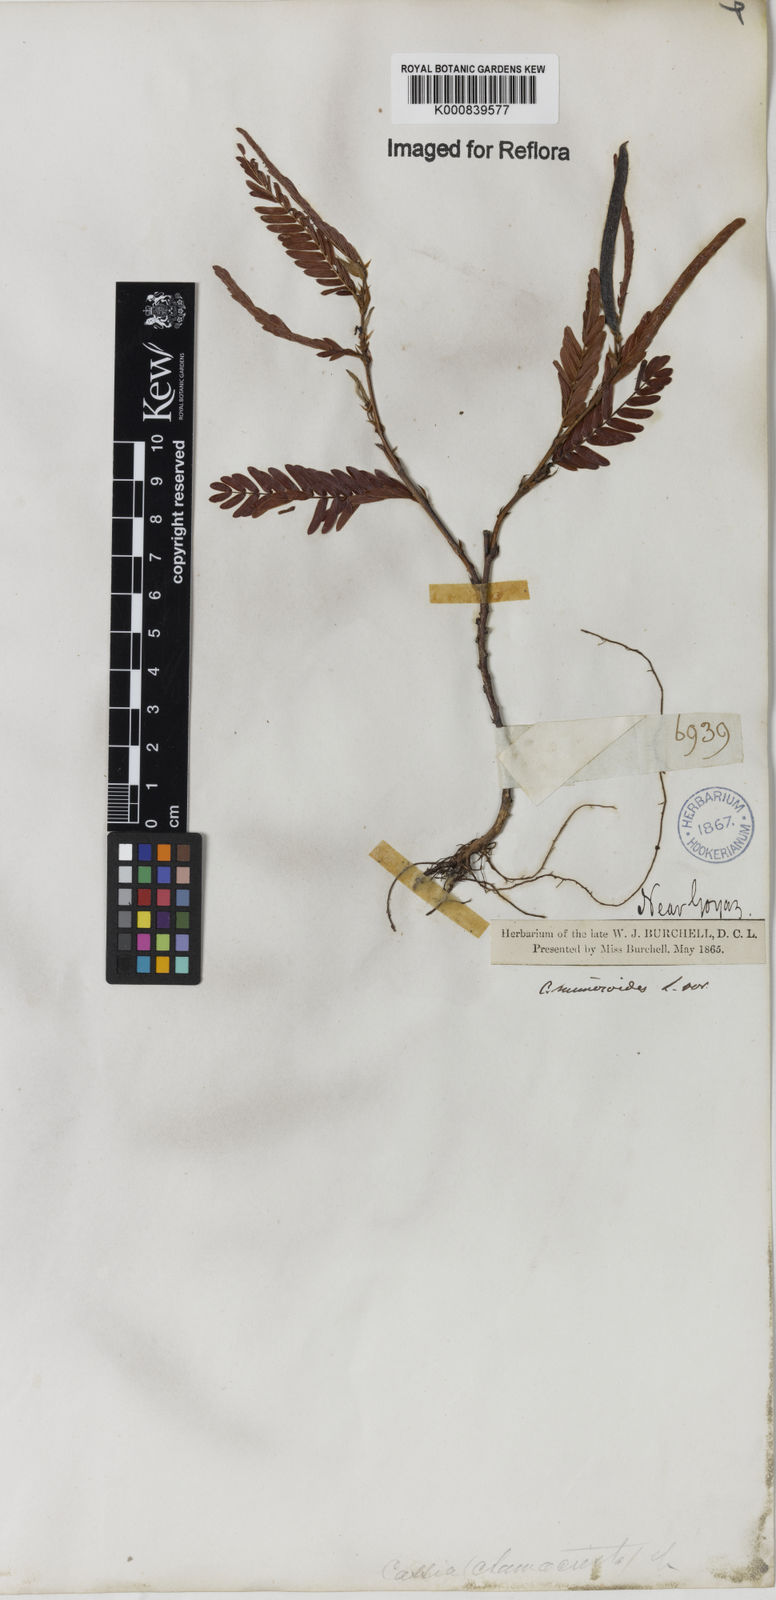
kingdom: Plantae
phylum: Tracheophyta
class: Magnoliopsida
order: Fabales
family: Fabaceae
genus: Chamaecrista
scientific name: Chamaecrista nictitans
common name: Sensitive cassia
